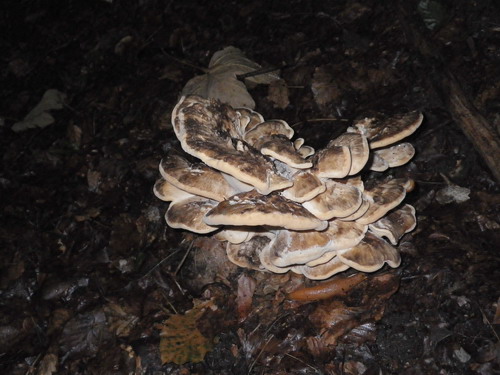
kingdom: Fungi
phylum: Basidiomycota
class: Agaricomycetes
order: Polyporales
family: Meripilaceae
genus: Meripilus
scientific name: Meripilus giganteus
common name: kæmpeporesvamp
